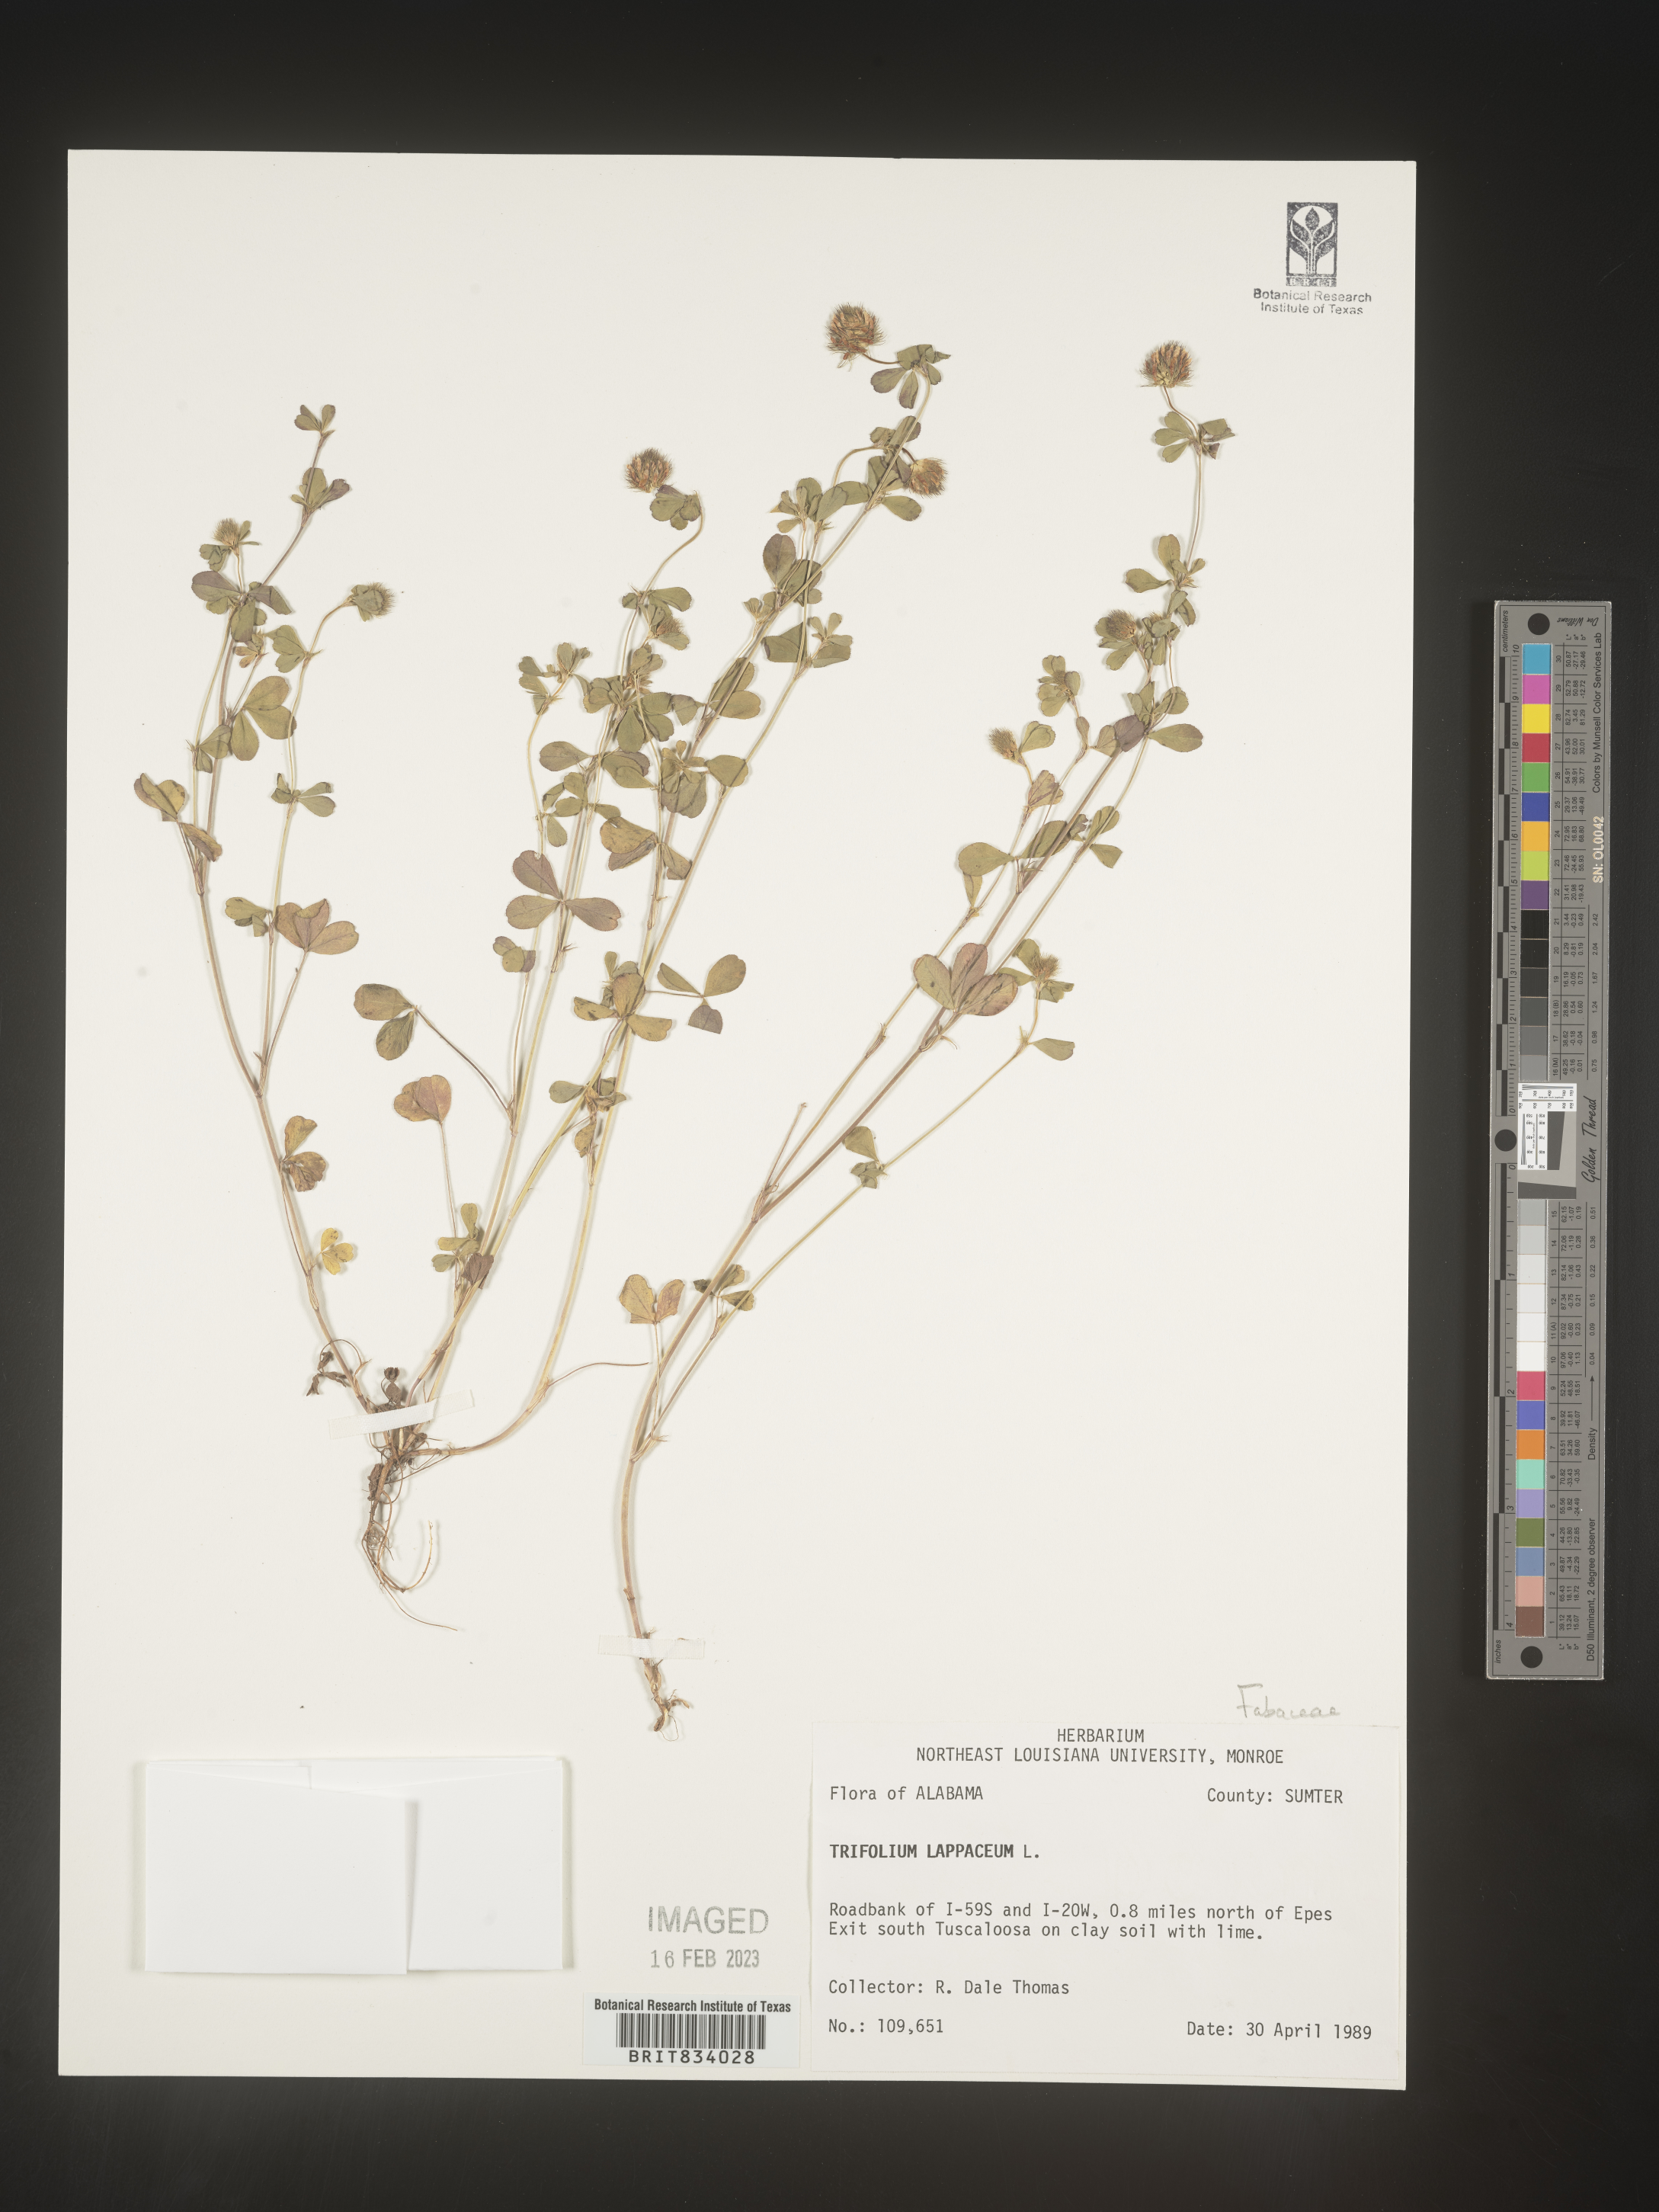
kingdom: Plantae
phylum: Tracheophyta
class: Magnoliopsida
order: Fabales
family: Fabaceae
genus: Trifolium
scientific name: Trifolium
